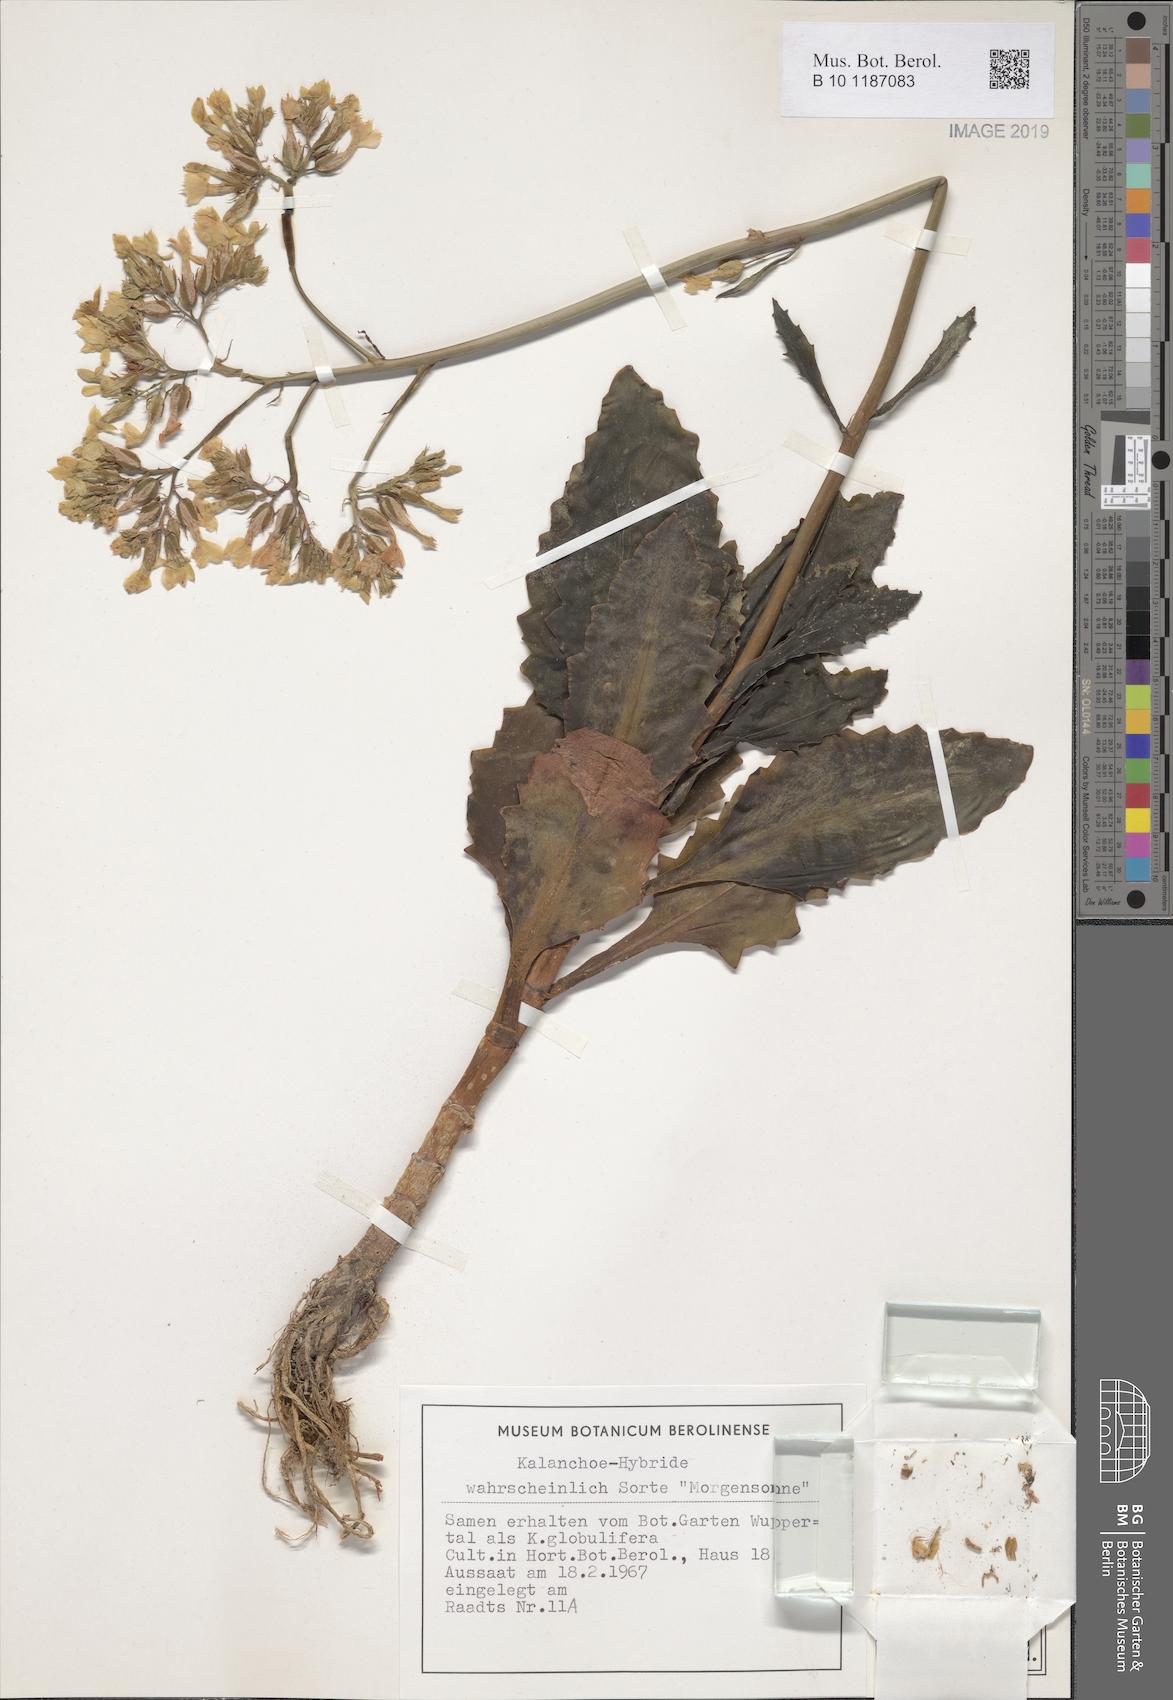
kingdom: Plantae
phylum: Tracheophyta
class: Magnoliopsida
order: Saxifragales
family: Crassulaceae
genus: Kalanchoe
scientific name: Kalanchoe
